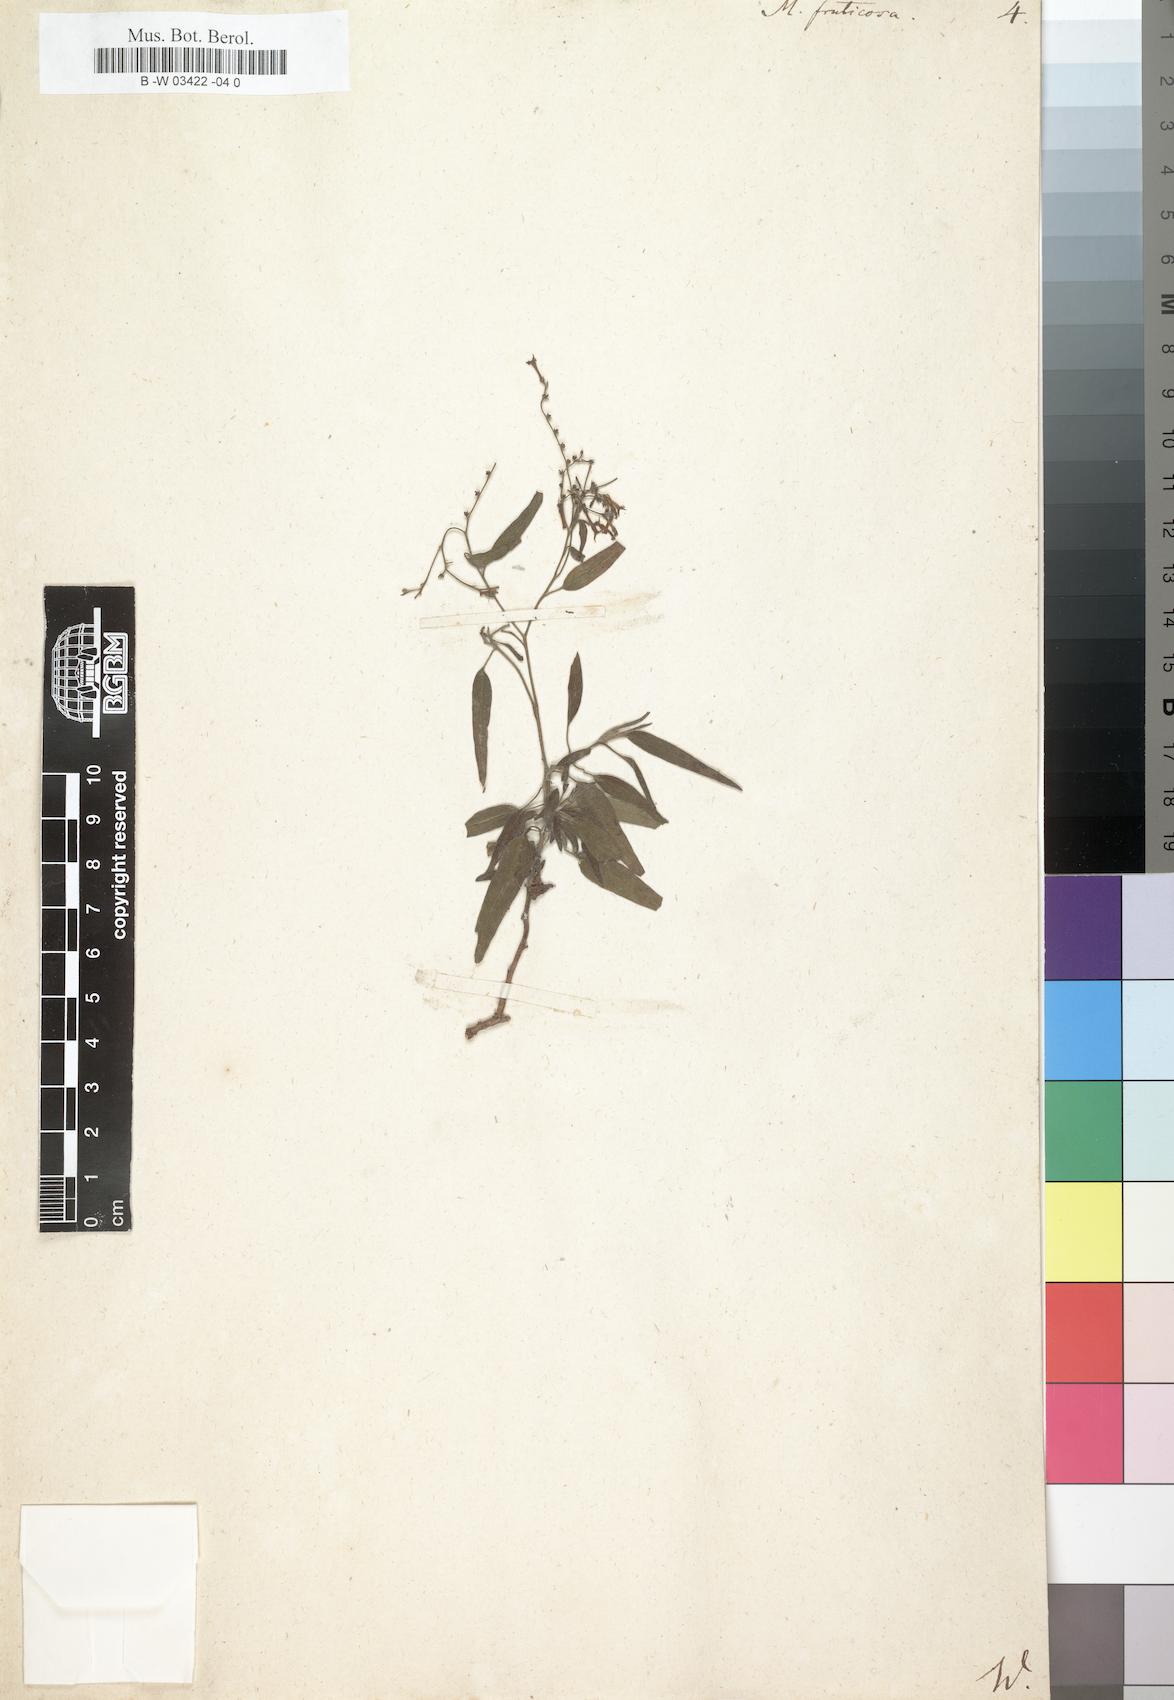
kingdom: Plantae
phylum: Tracheophyta
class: Magnoliopsida
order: Boraginales
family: Heliotropiaceae
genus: Heliotropium
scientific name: Heliotropium messerschmidioides
